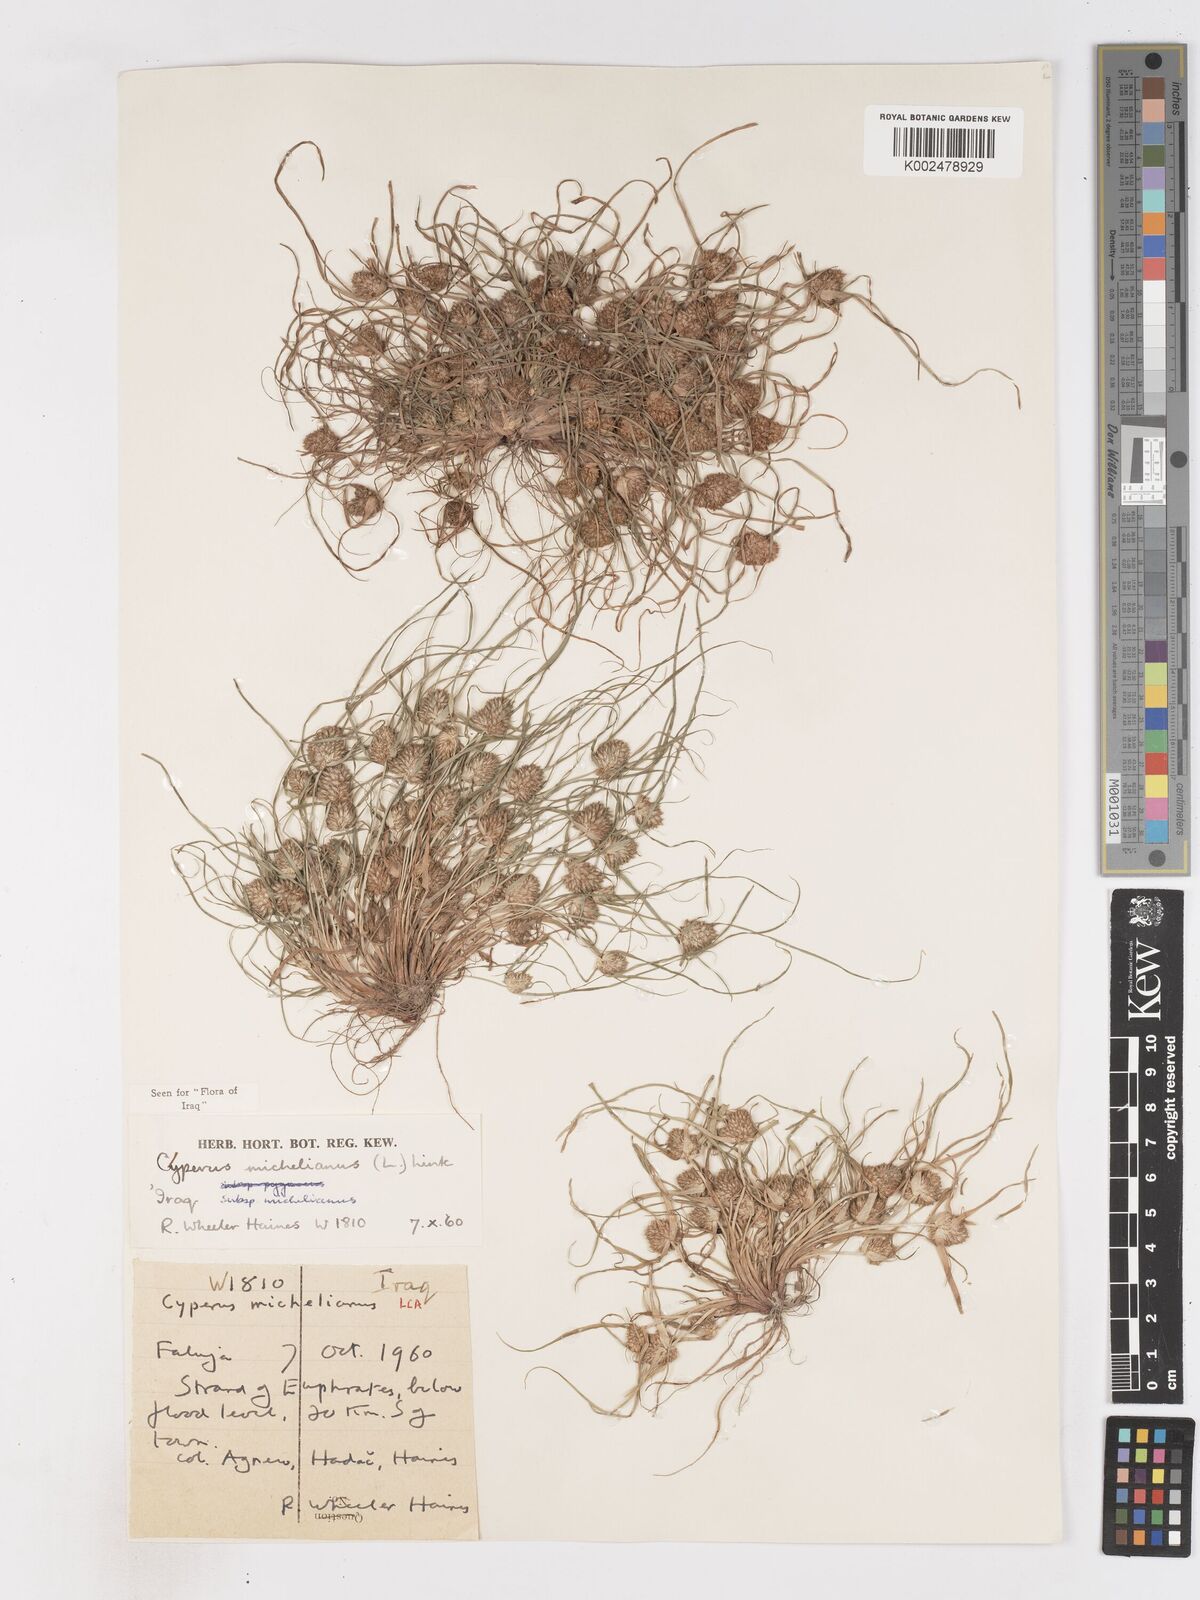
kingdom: Plantae
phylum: Tracheophyta
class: Liliopsida
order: Poales
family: Cyperaceae
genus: Cyperus
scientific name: Cyperus michelianus
